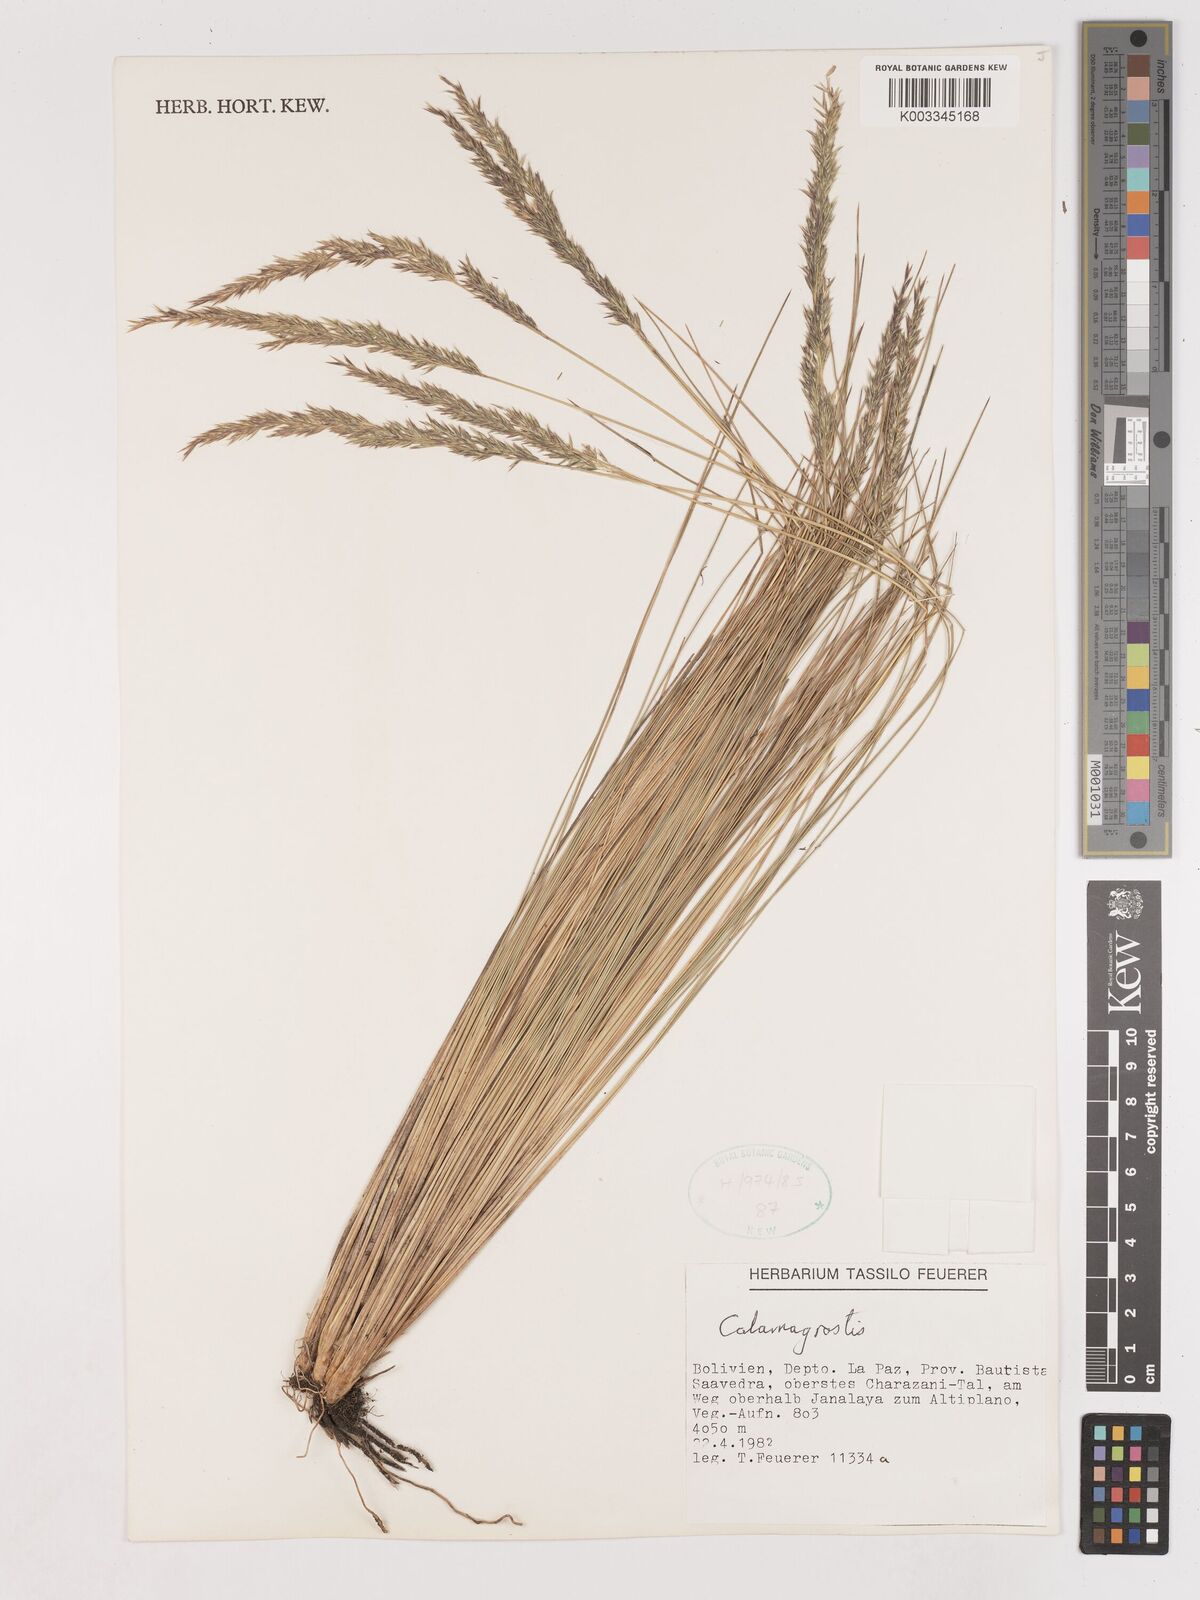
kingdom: Plantae
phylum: Tracheophyta
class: Liliopsida
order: Poales
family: Poaceae
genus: Calamagrostis
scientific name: Calamagrostis
